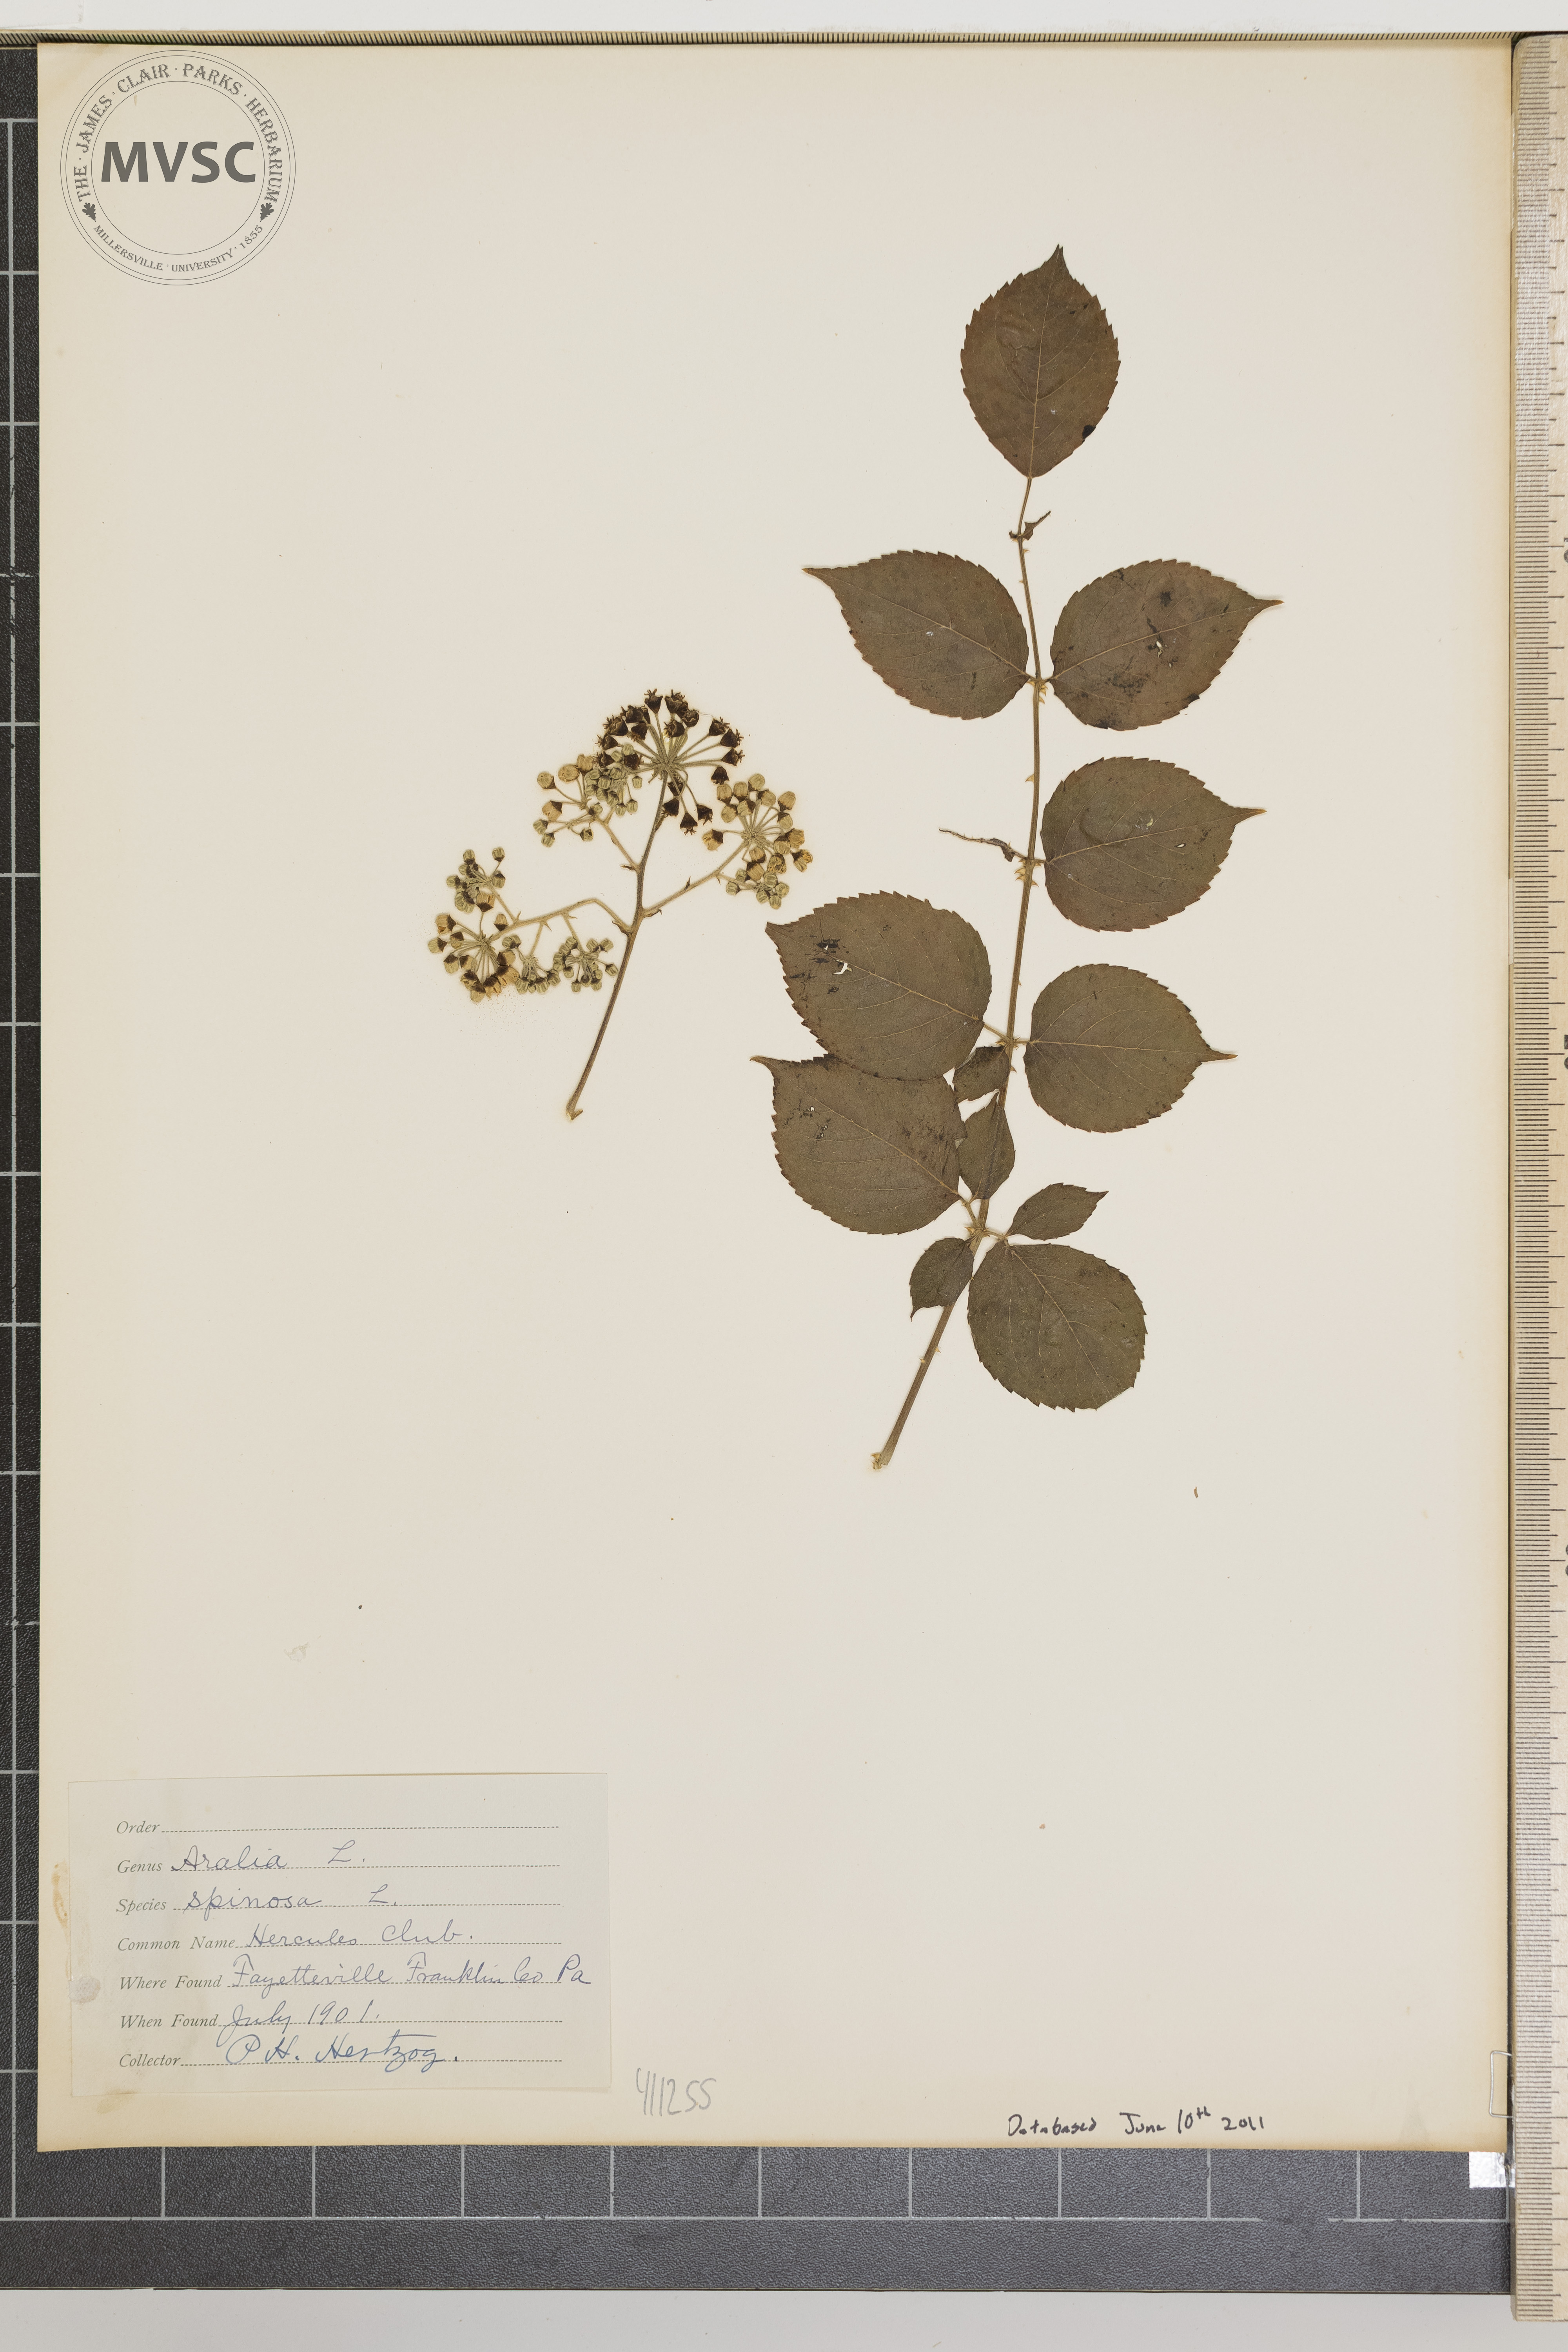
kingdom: Plantae
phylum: Tracheophyta
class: Magnoliopsida
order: Apiales
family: Araliaceae
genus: Aralia
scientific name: Aralia spinosa
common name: Devil's club
